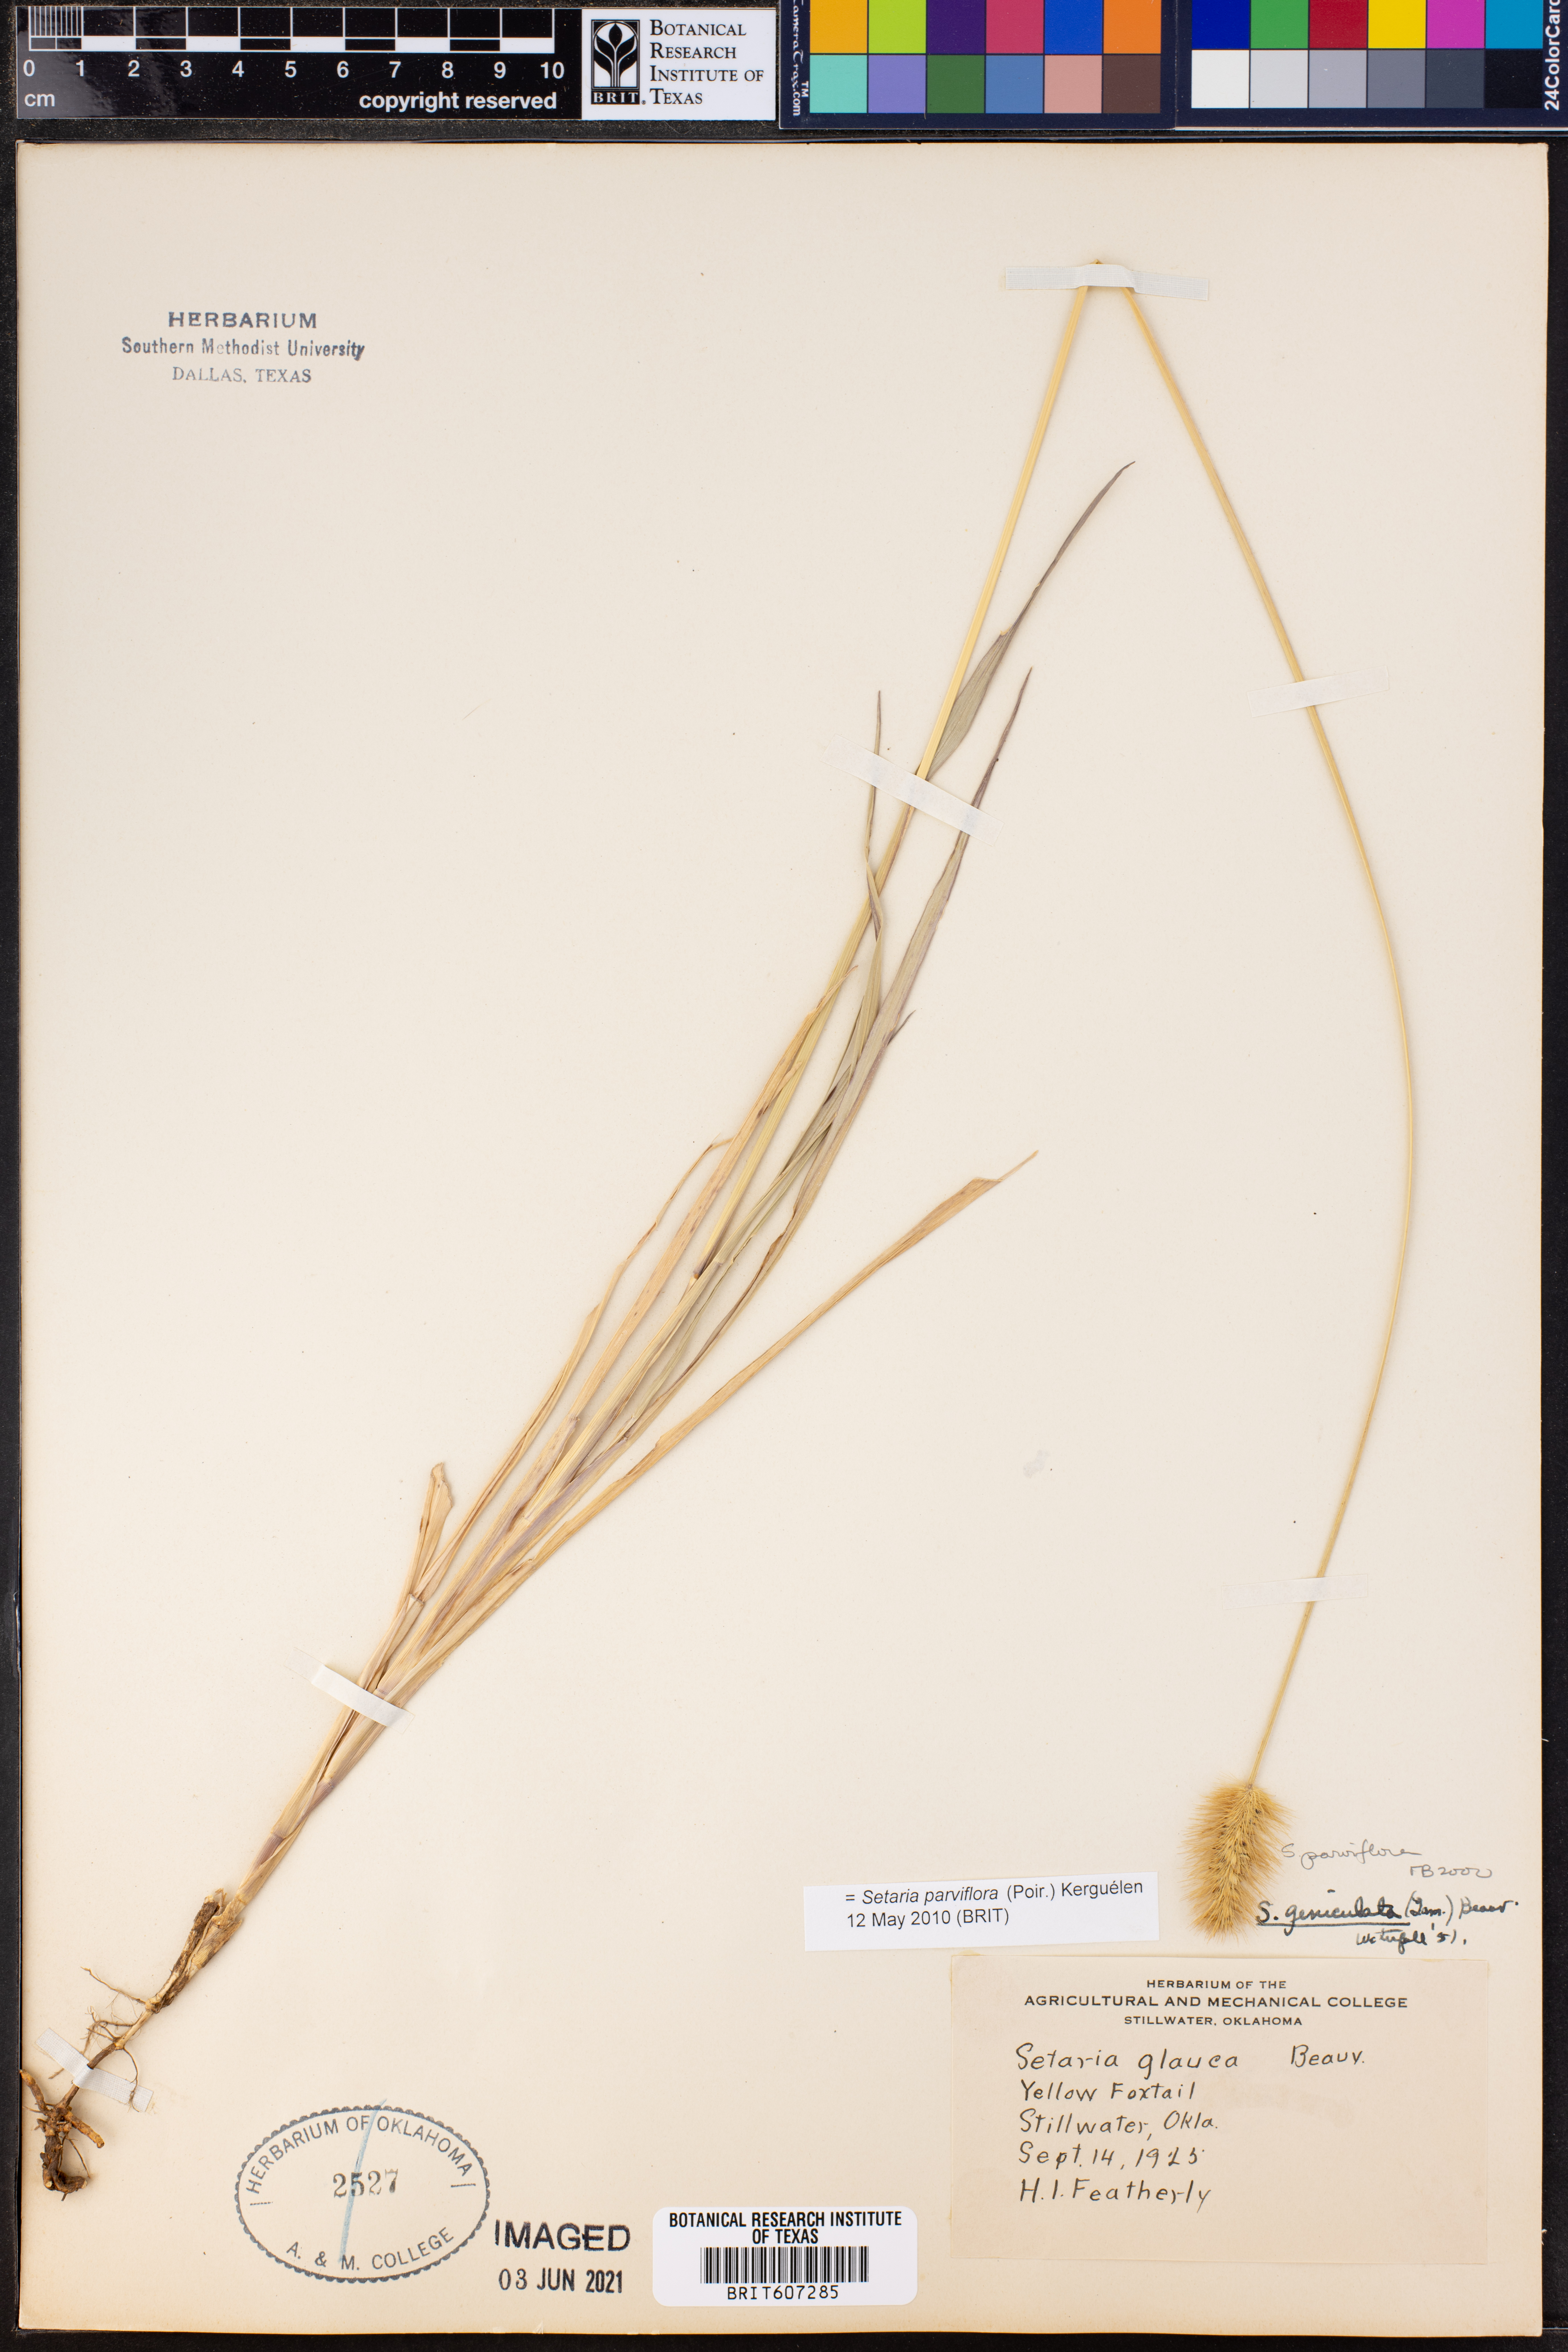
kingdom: Plantae
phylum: Tracheophyta
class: Liliopsida
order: Poales
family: Poaceae
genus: Setaria
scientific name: Setaria parviflora
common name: Knotroot bristle-grass
